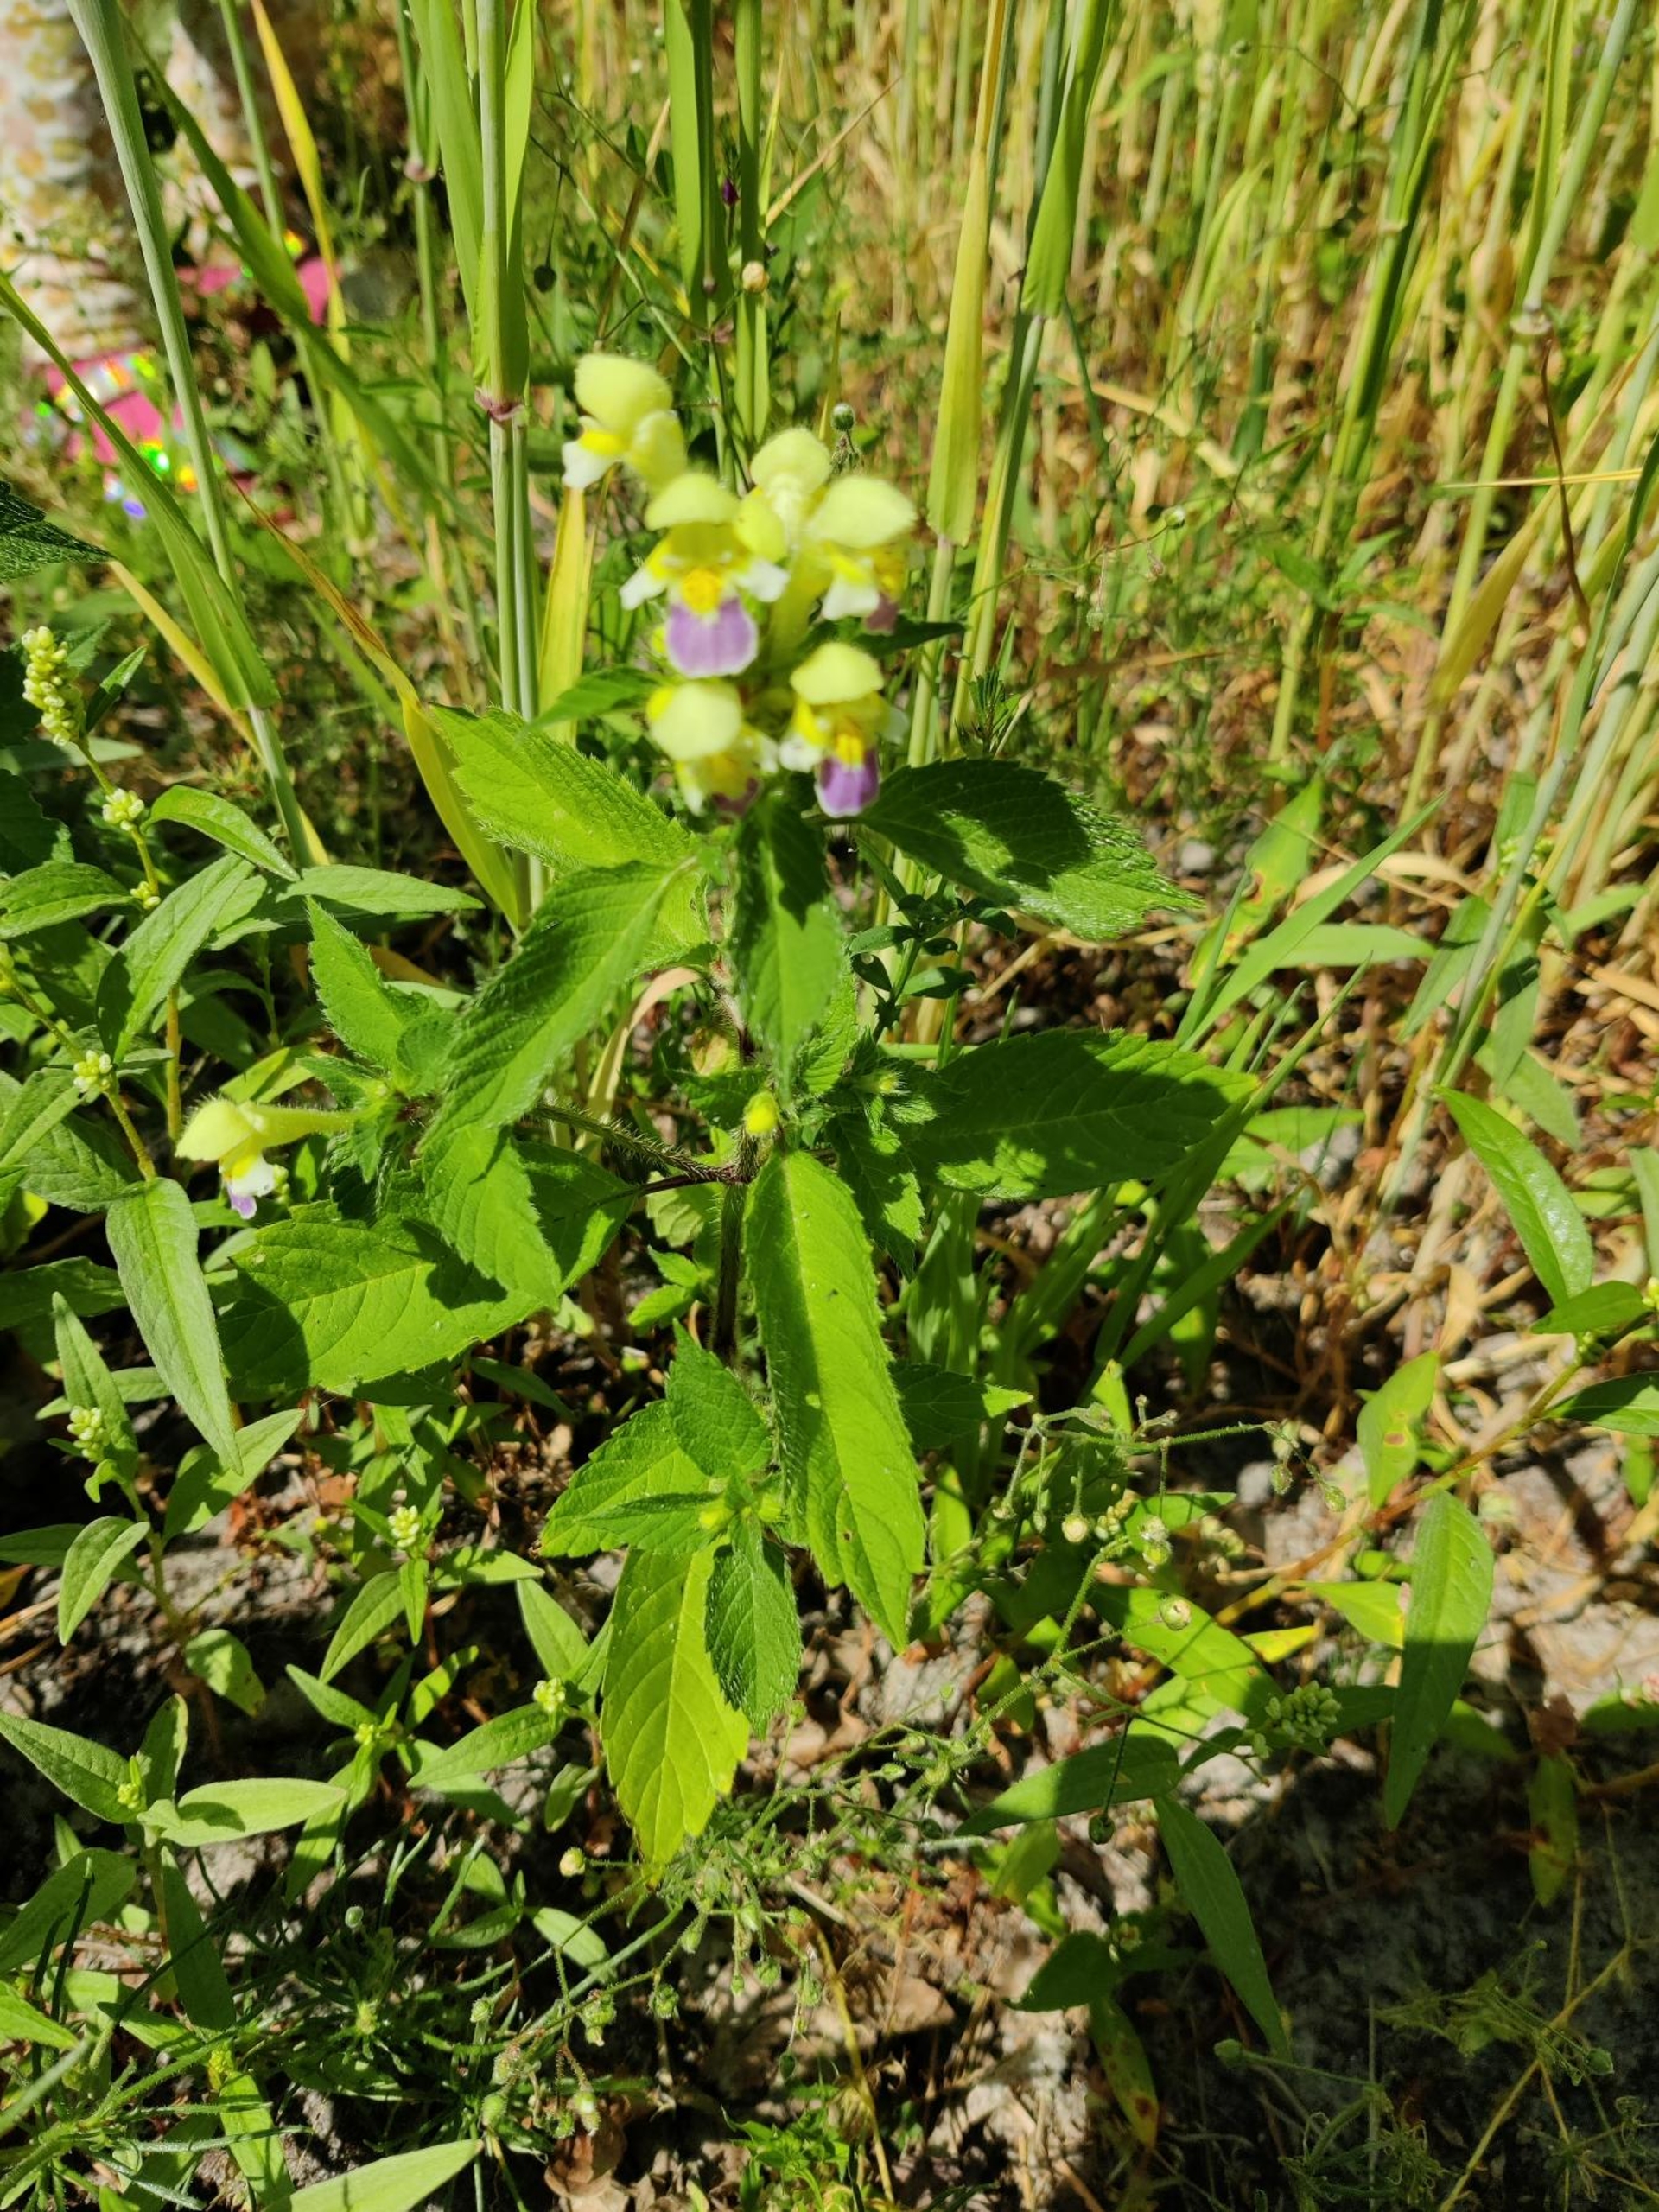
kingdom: Plantae
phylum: Tracheophyta
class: Magnoliopsida
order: Lamiales
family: Lamiaceae
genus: Galeopsis
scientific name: Galeopsis speciosa
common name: Hamp-hanekro
